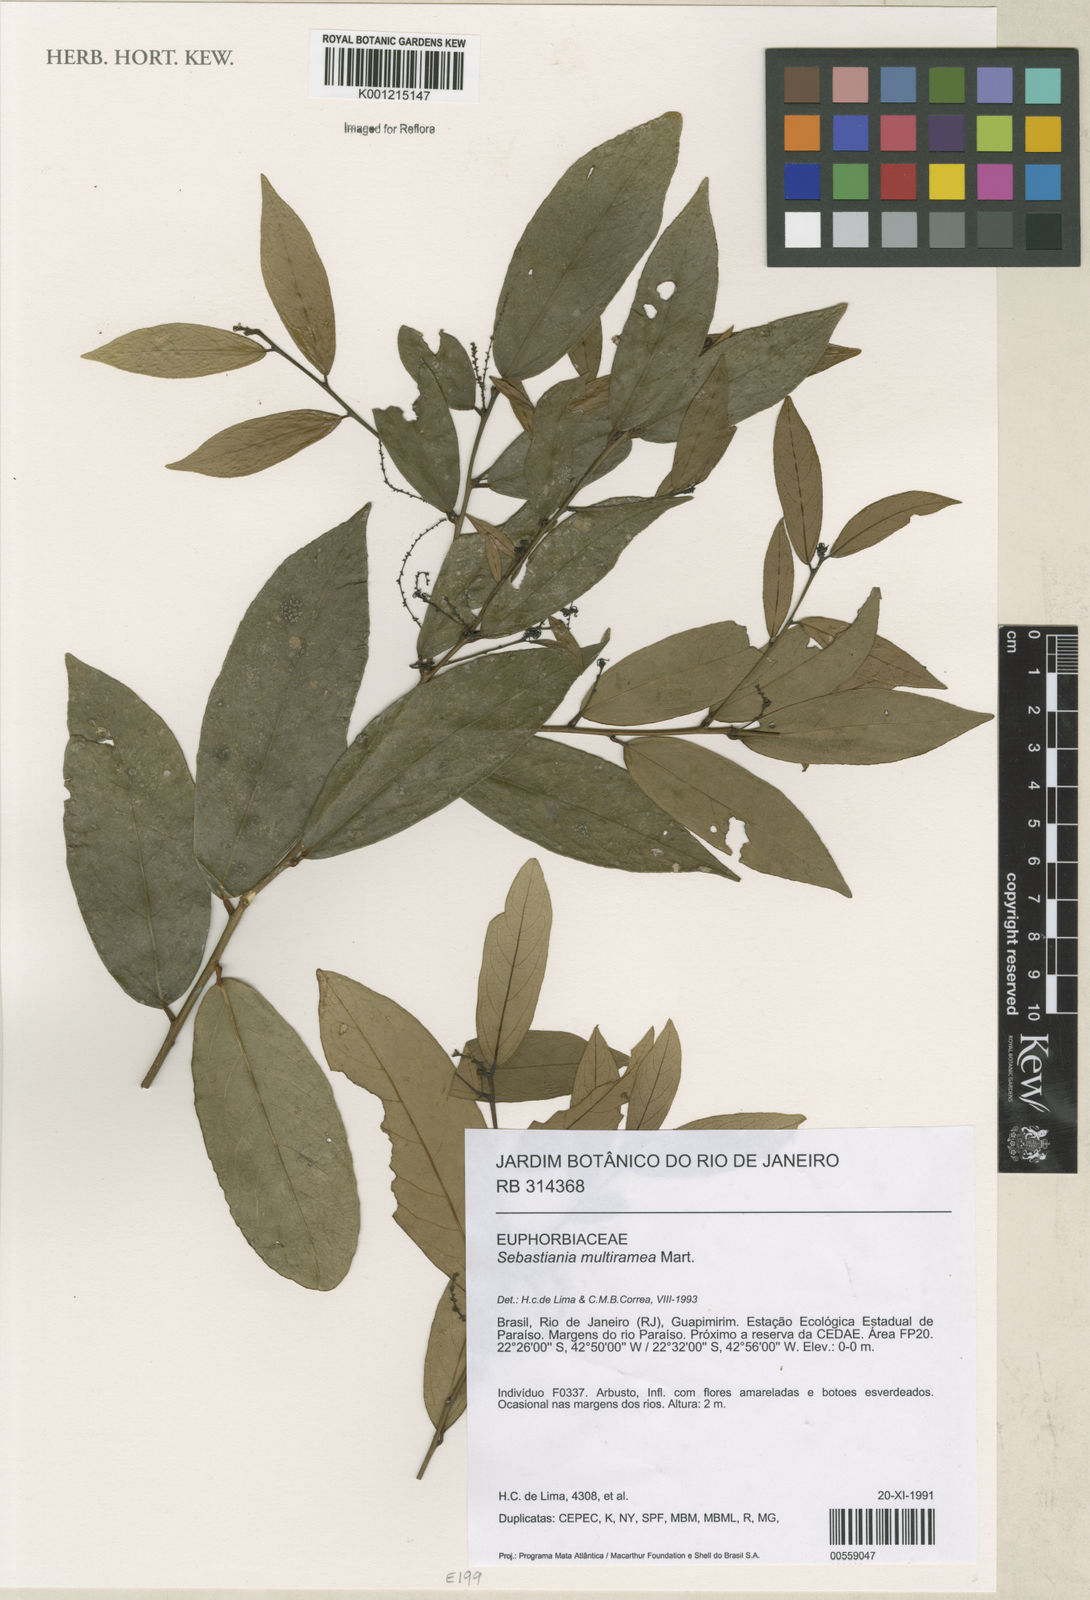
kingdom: Plantae
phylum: Tracheophyta
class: Magnoliopsida
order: Malpighiales
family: Euphorbiaceae
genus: Gymnanthes
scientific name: Gymnanthes
